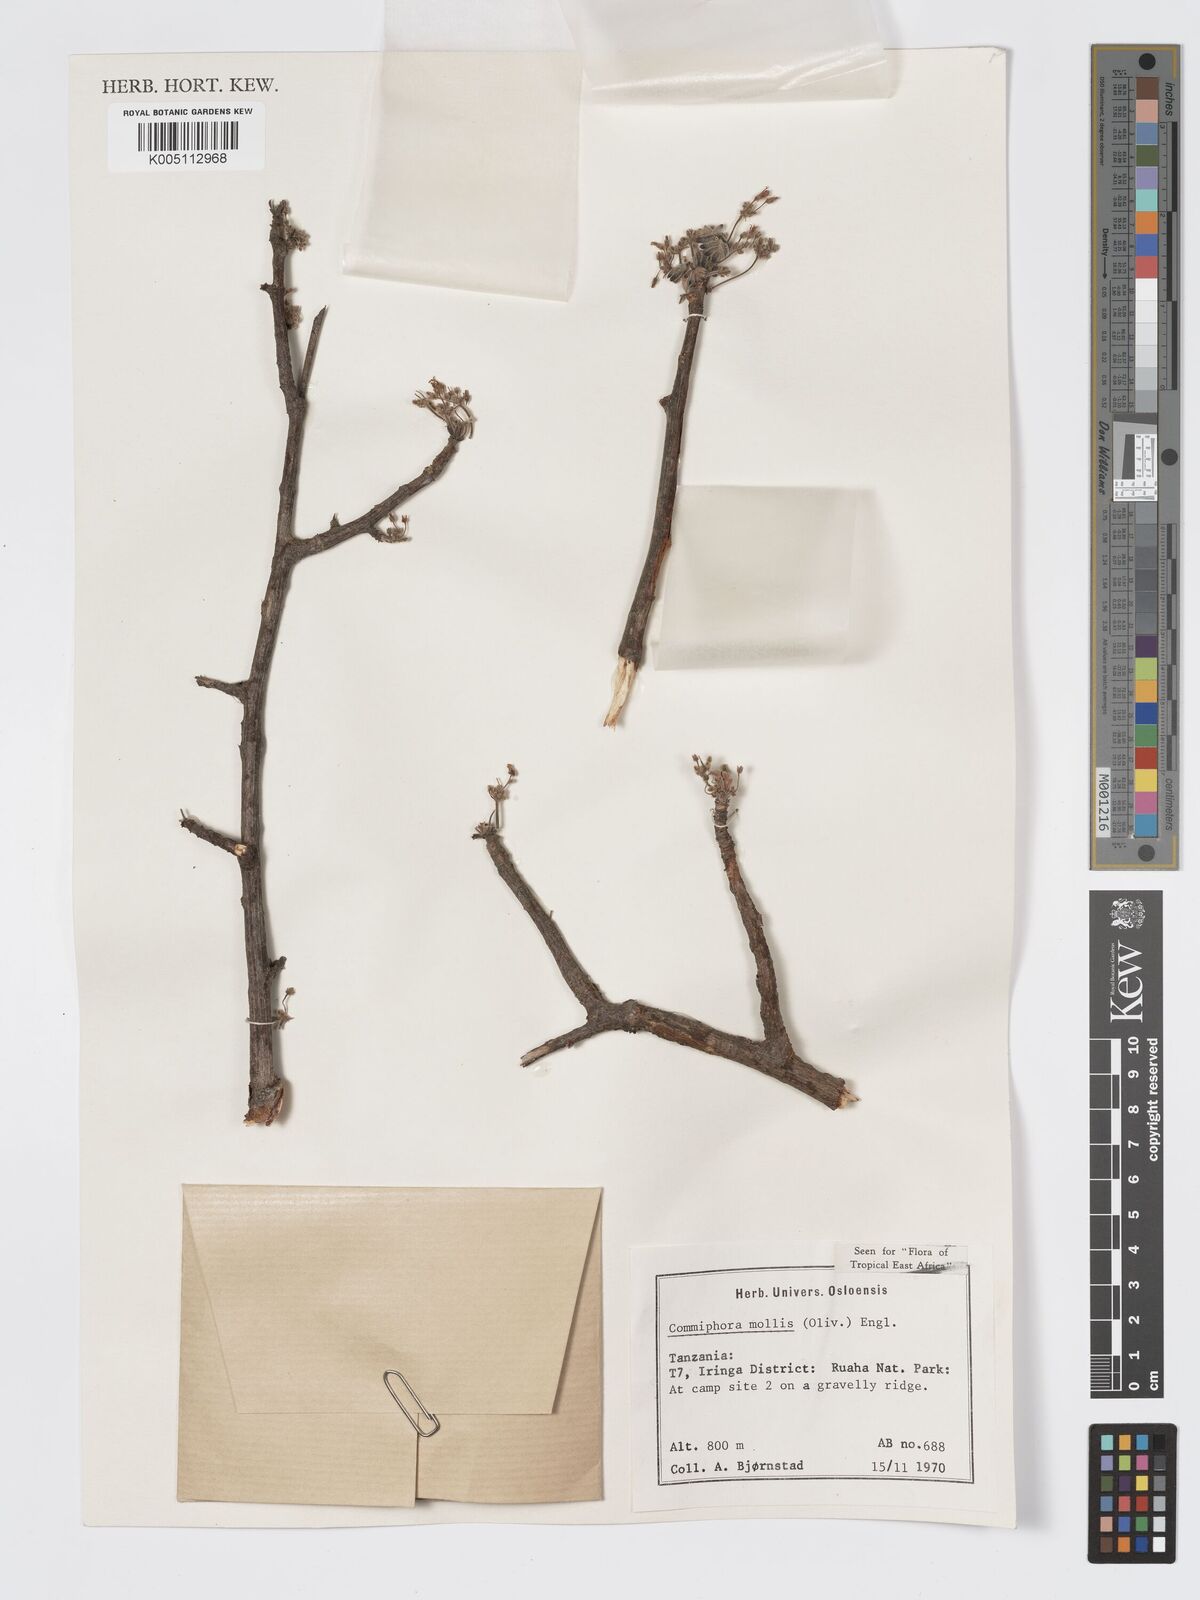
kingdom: Plantae
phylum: Tracheophyta
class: Magnoliopsida
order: Sapindales
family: Burseraceae
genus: Commiphora
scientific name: Commiphora
